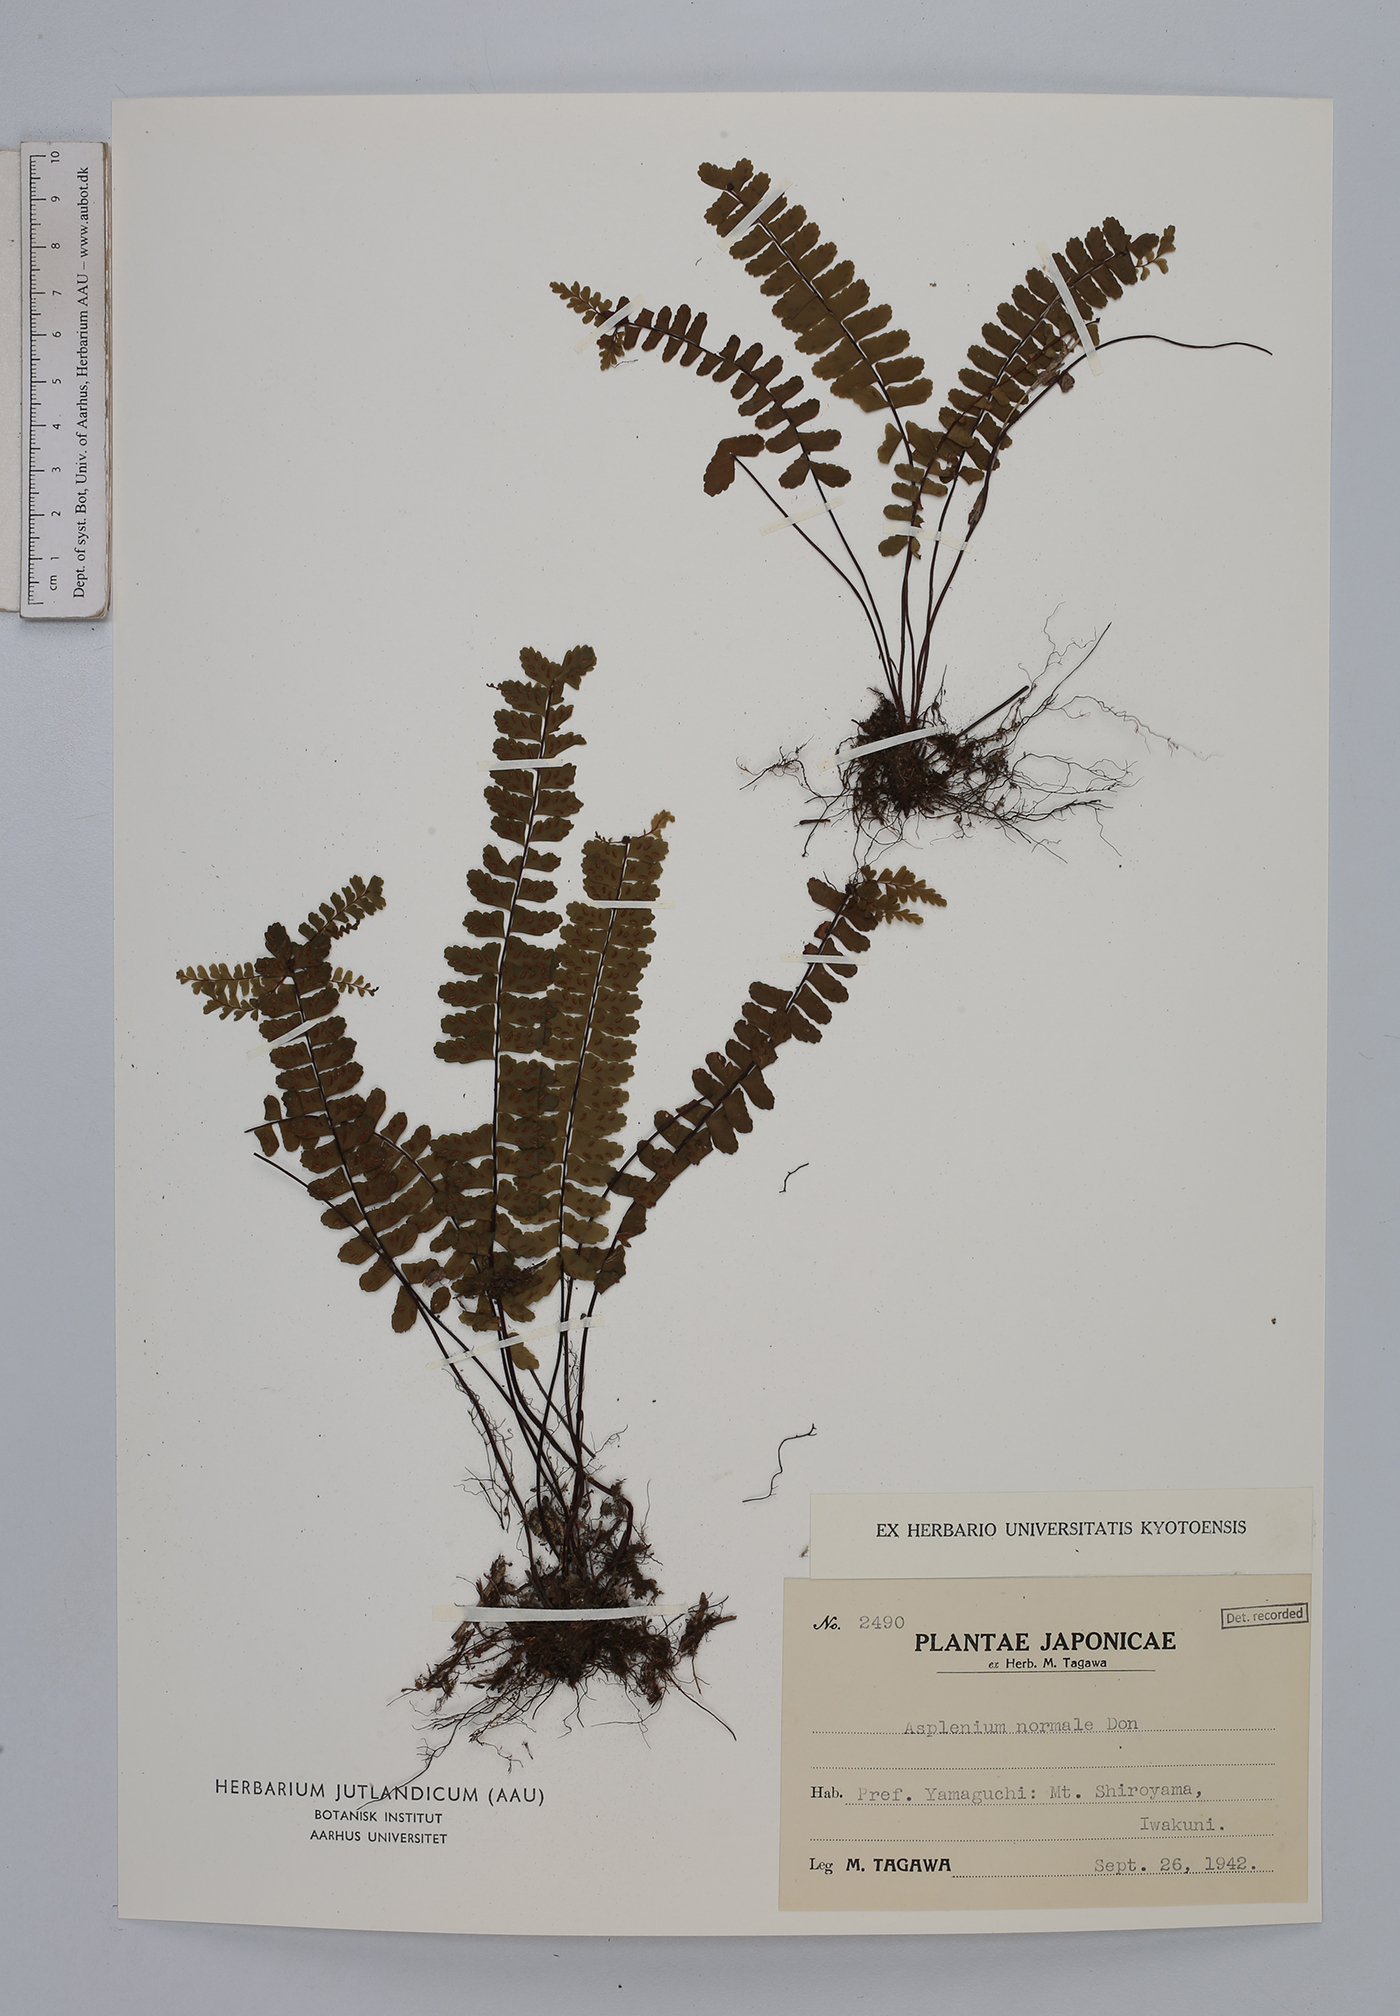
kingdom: Plantae
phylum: Tracheophyta
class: Polypodiopsida
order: Polypodiales
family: Aspleniaceae
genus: Asplenium
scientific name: Asplenium normale
